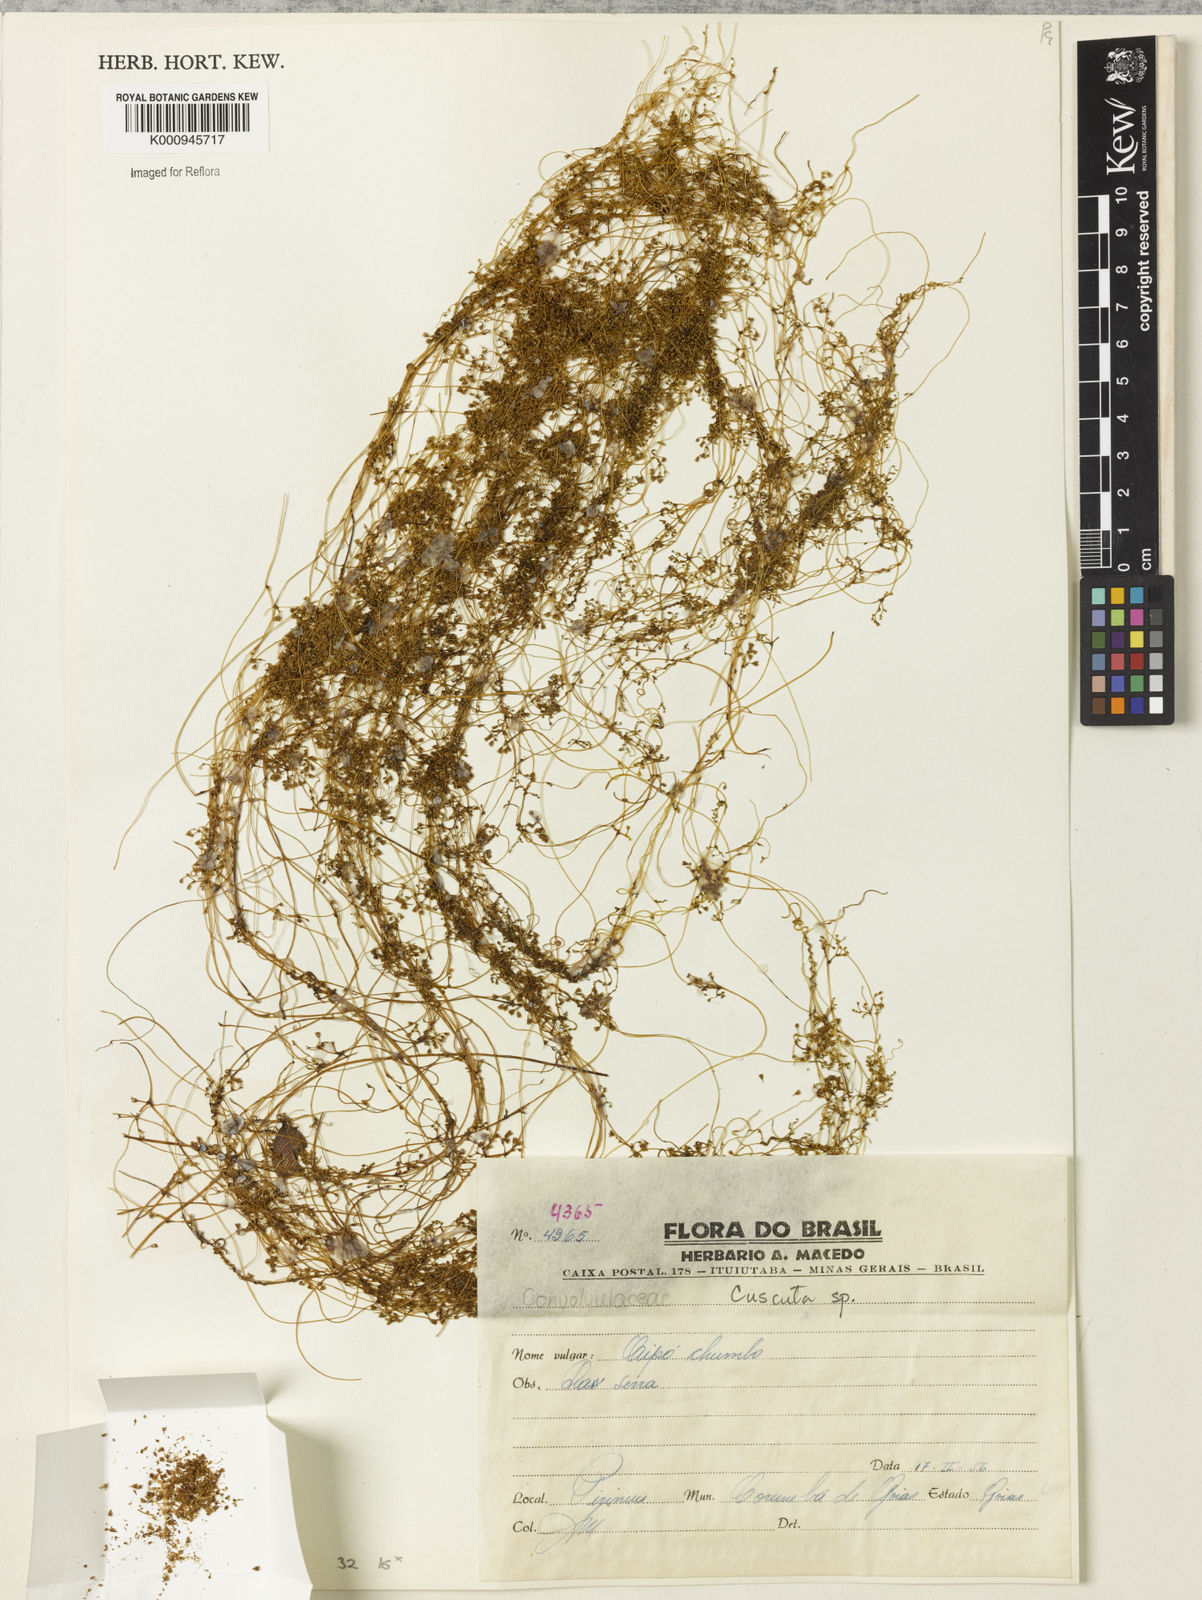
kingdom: Plantae
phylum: Tracheophyta
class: Magnoliopsida
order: Solanales
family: Convolvulaceae
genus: Cuscuta
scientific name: Cuscuta
